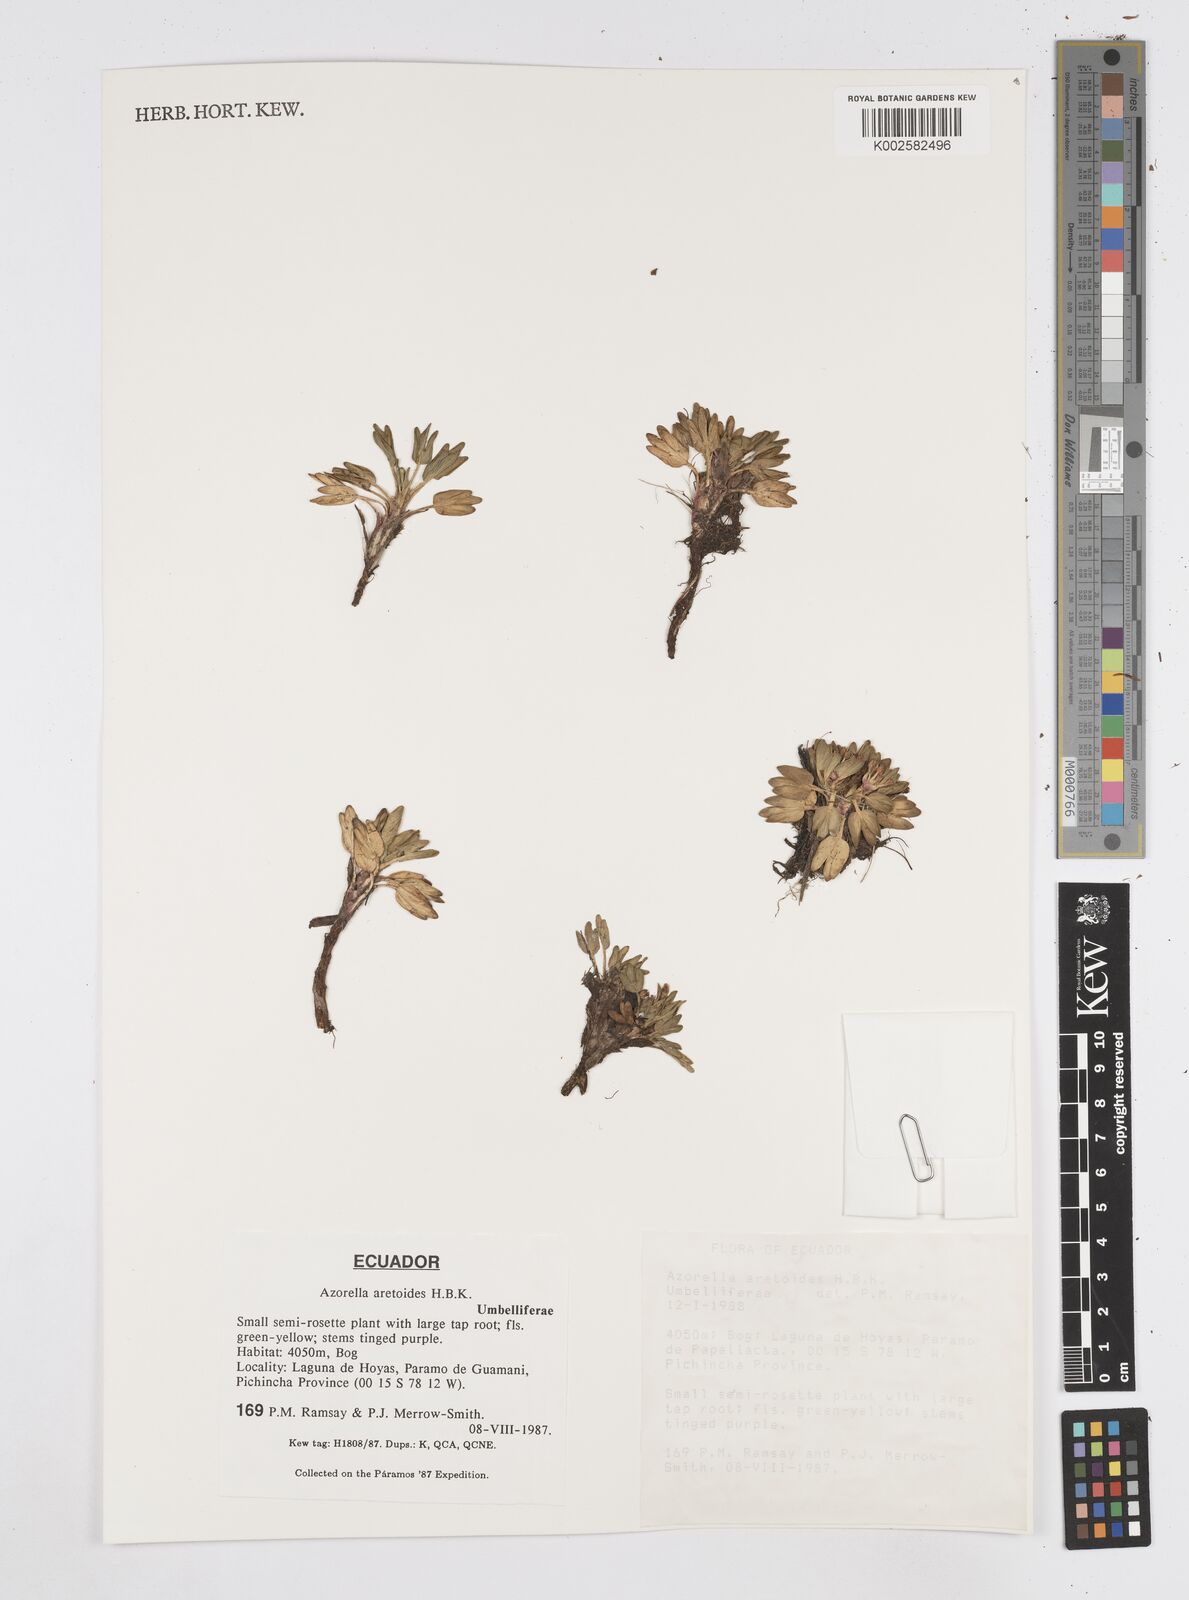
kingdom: Plantae
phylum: Tracheophyta
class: Magnoliopsida
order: Apiales
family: Apiaceae
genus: Azorella
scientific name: Azorella aretioides
